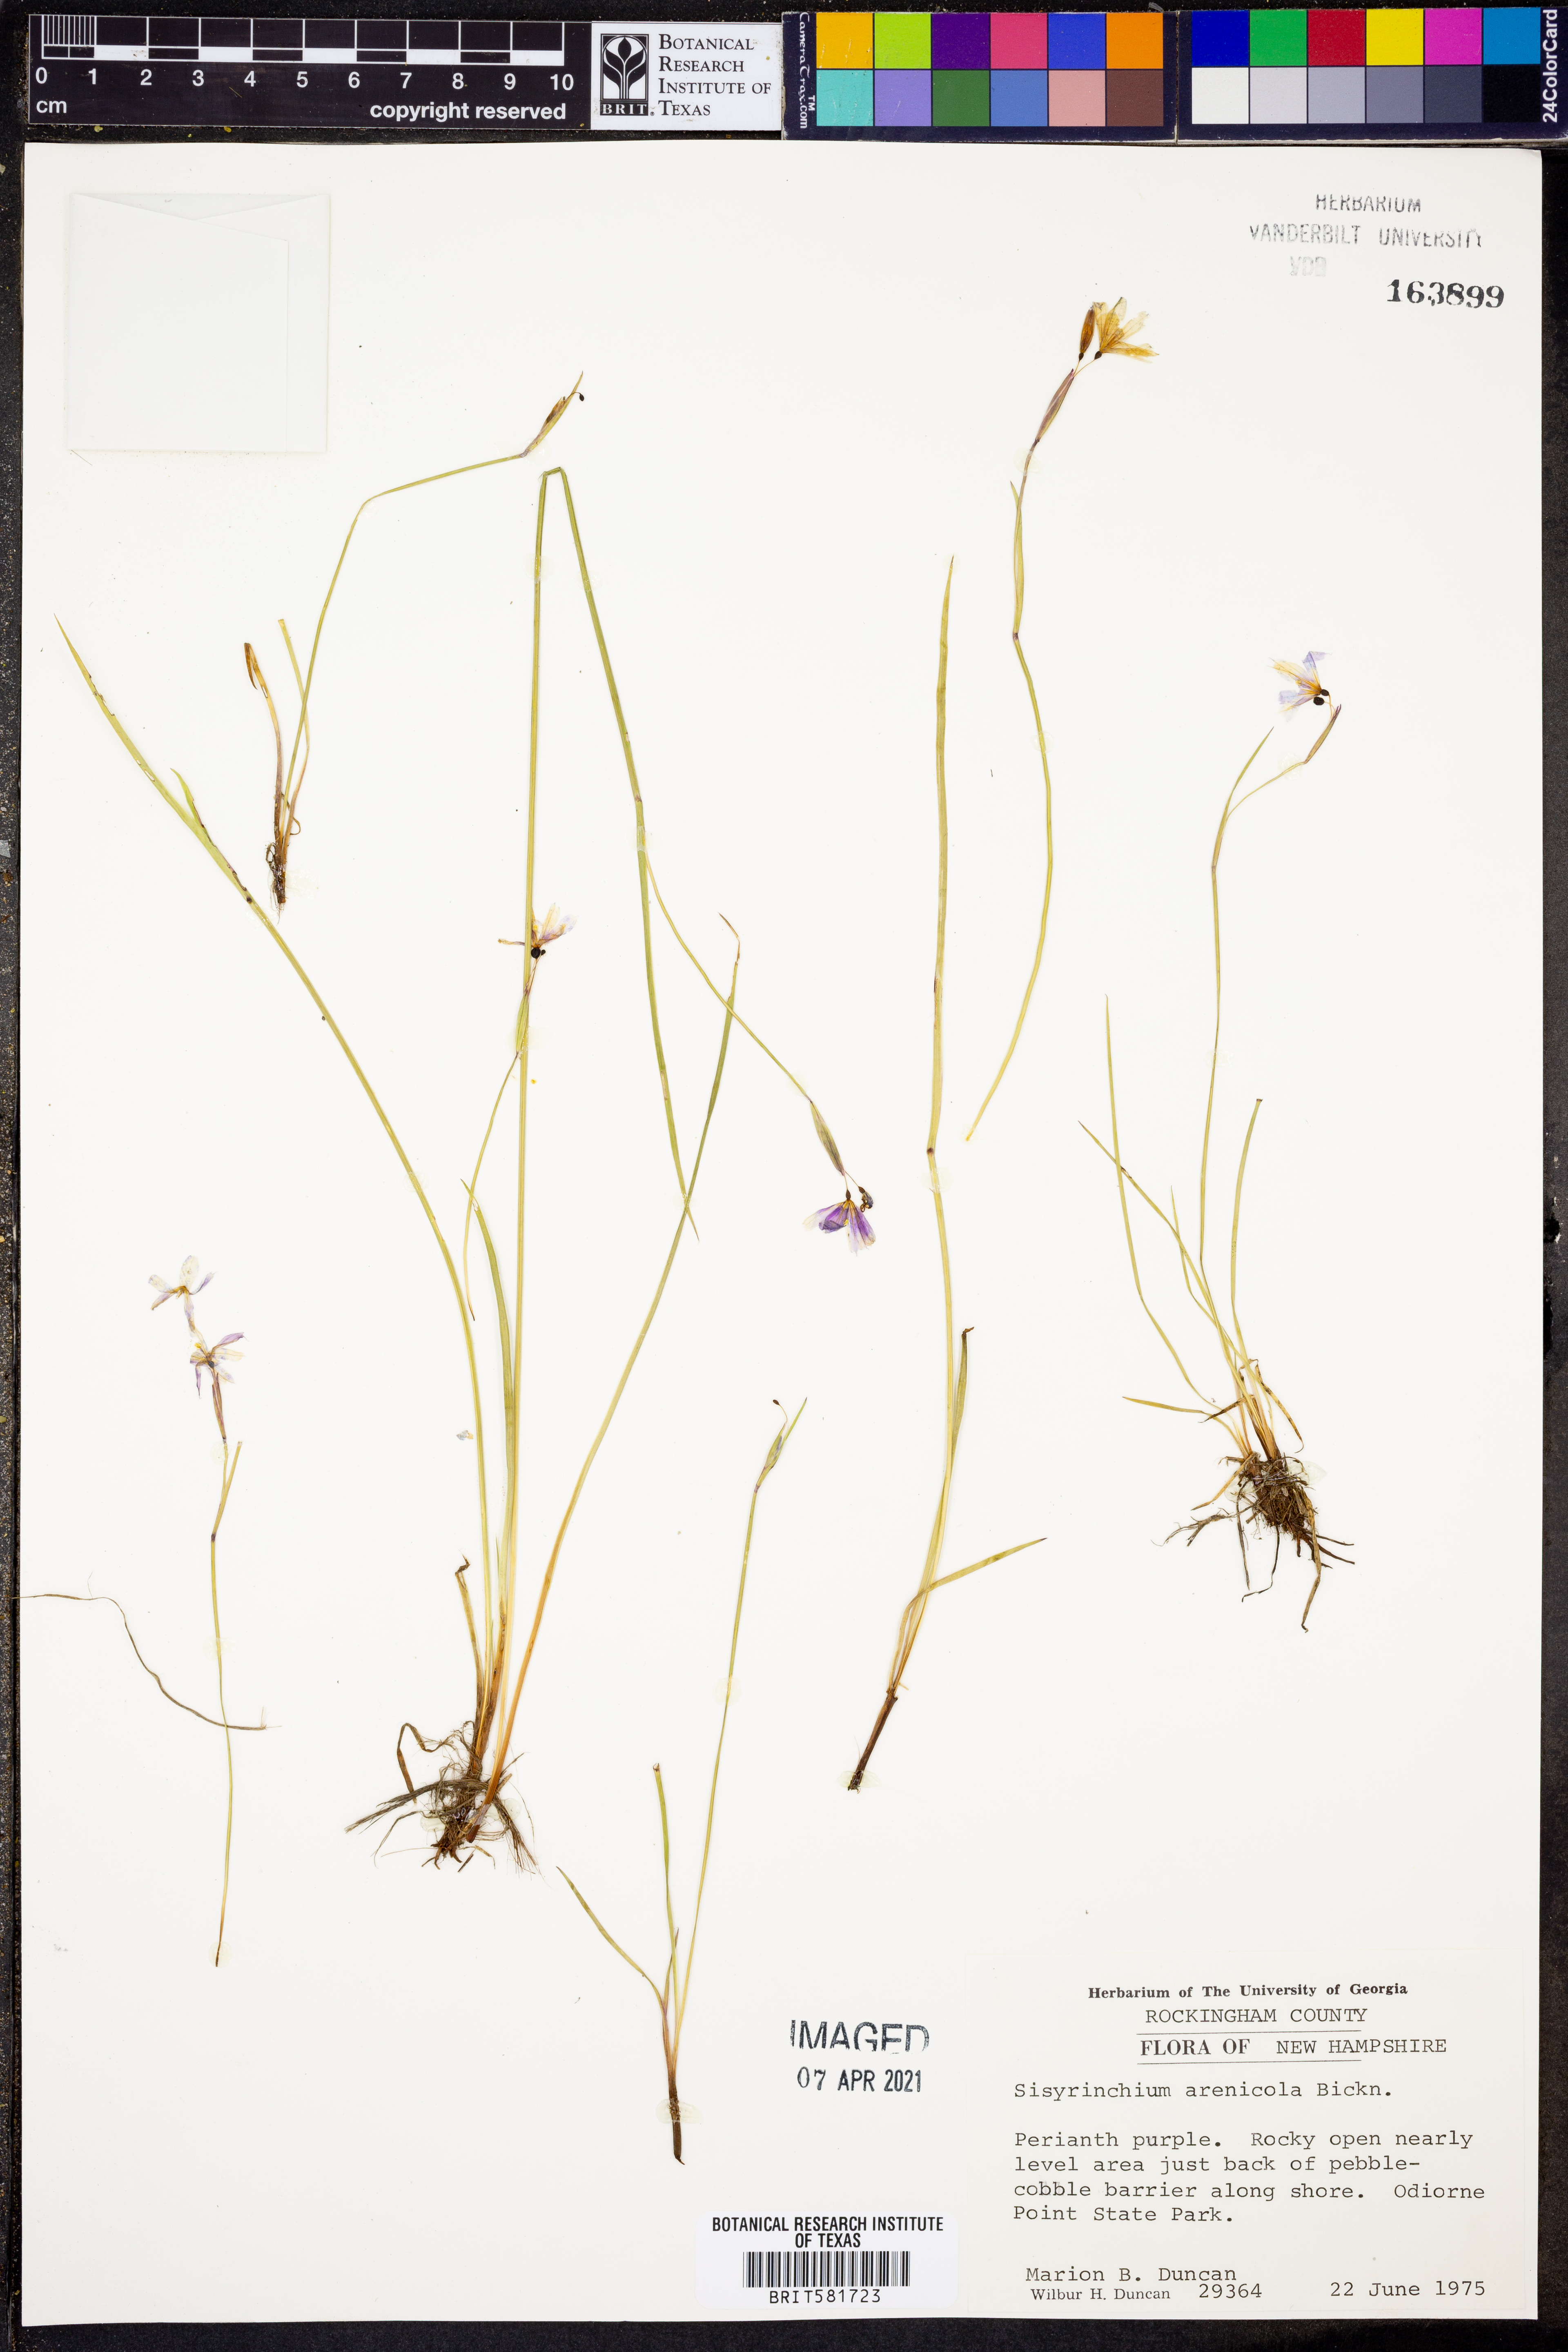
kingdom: Plantae
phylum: Tracheophyta
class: Liliopsida
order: Asparagales
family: Iridaceae
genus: Sisyrinchium
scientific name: Sisyrinchium fuscatum
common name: Coastal plain blue-eyed-grass
